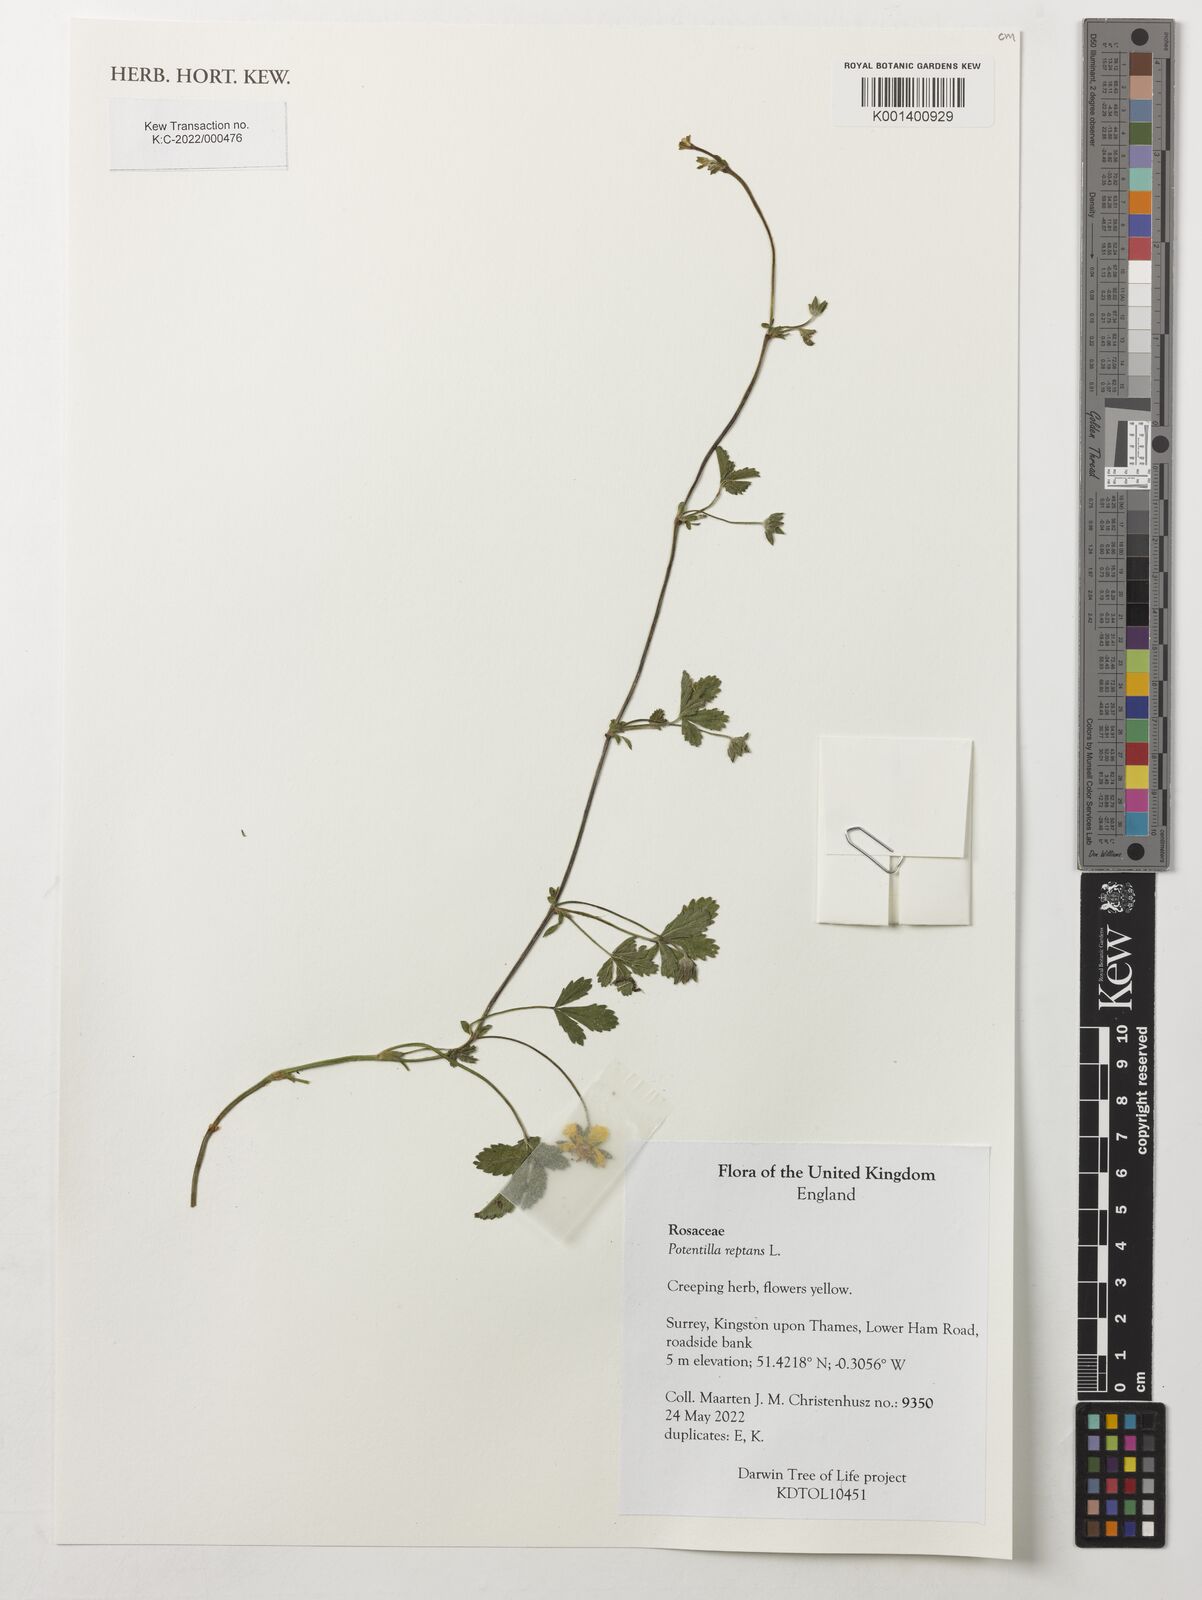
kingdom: Plantae
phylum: Tracheophyta
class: Magnoliopsida
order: Rosales
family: Rosaceae
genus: Potentilla
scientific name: Potentilla reptans
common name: Creeping cinquefoil
